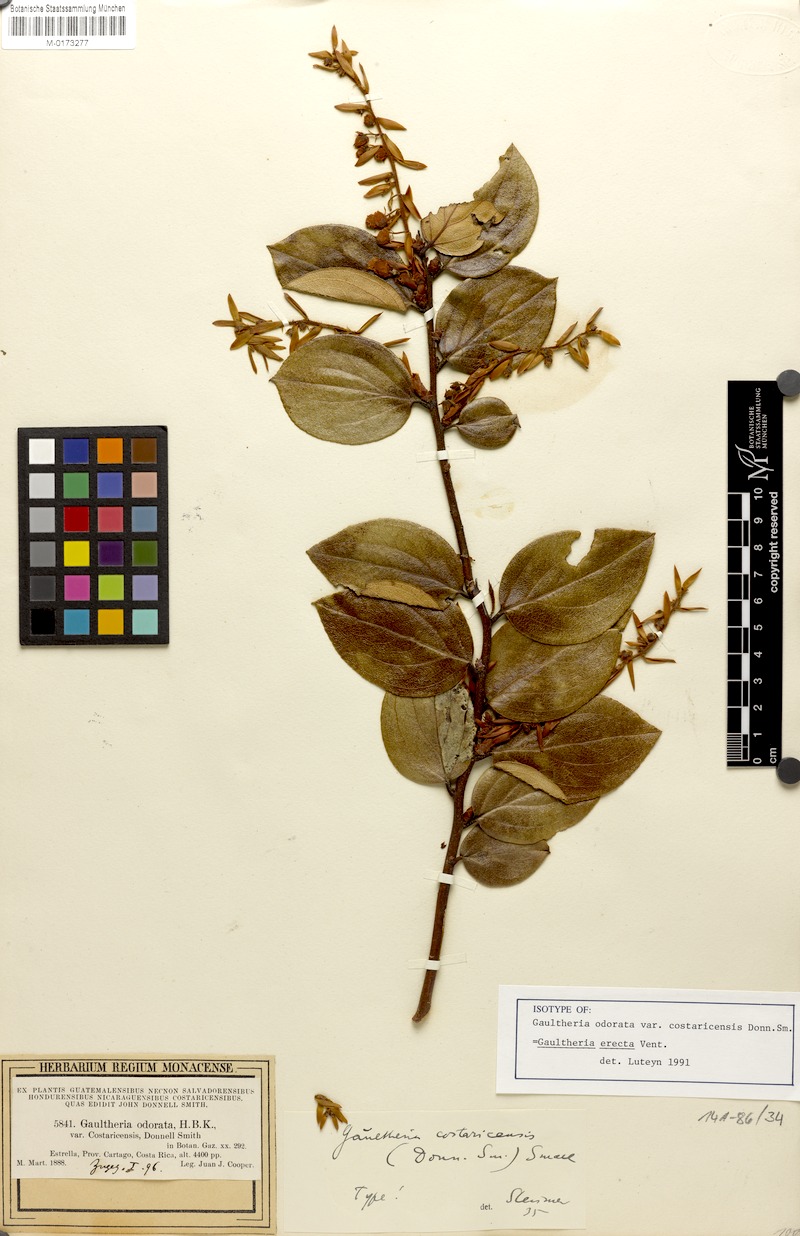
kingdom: Plantae
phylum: Tracheophyta
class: Magnoliopsida
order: Ericales
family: Ericaceae
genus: Gaultheria
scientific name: Gaultheria erecta
